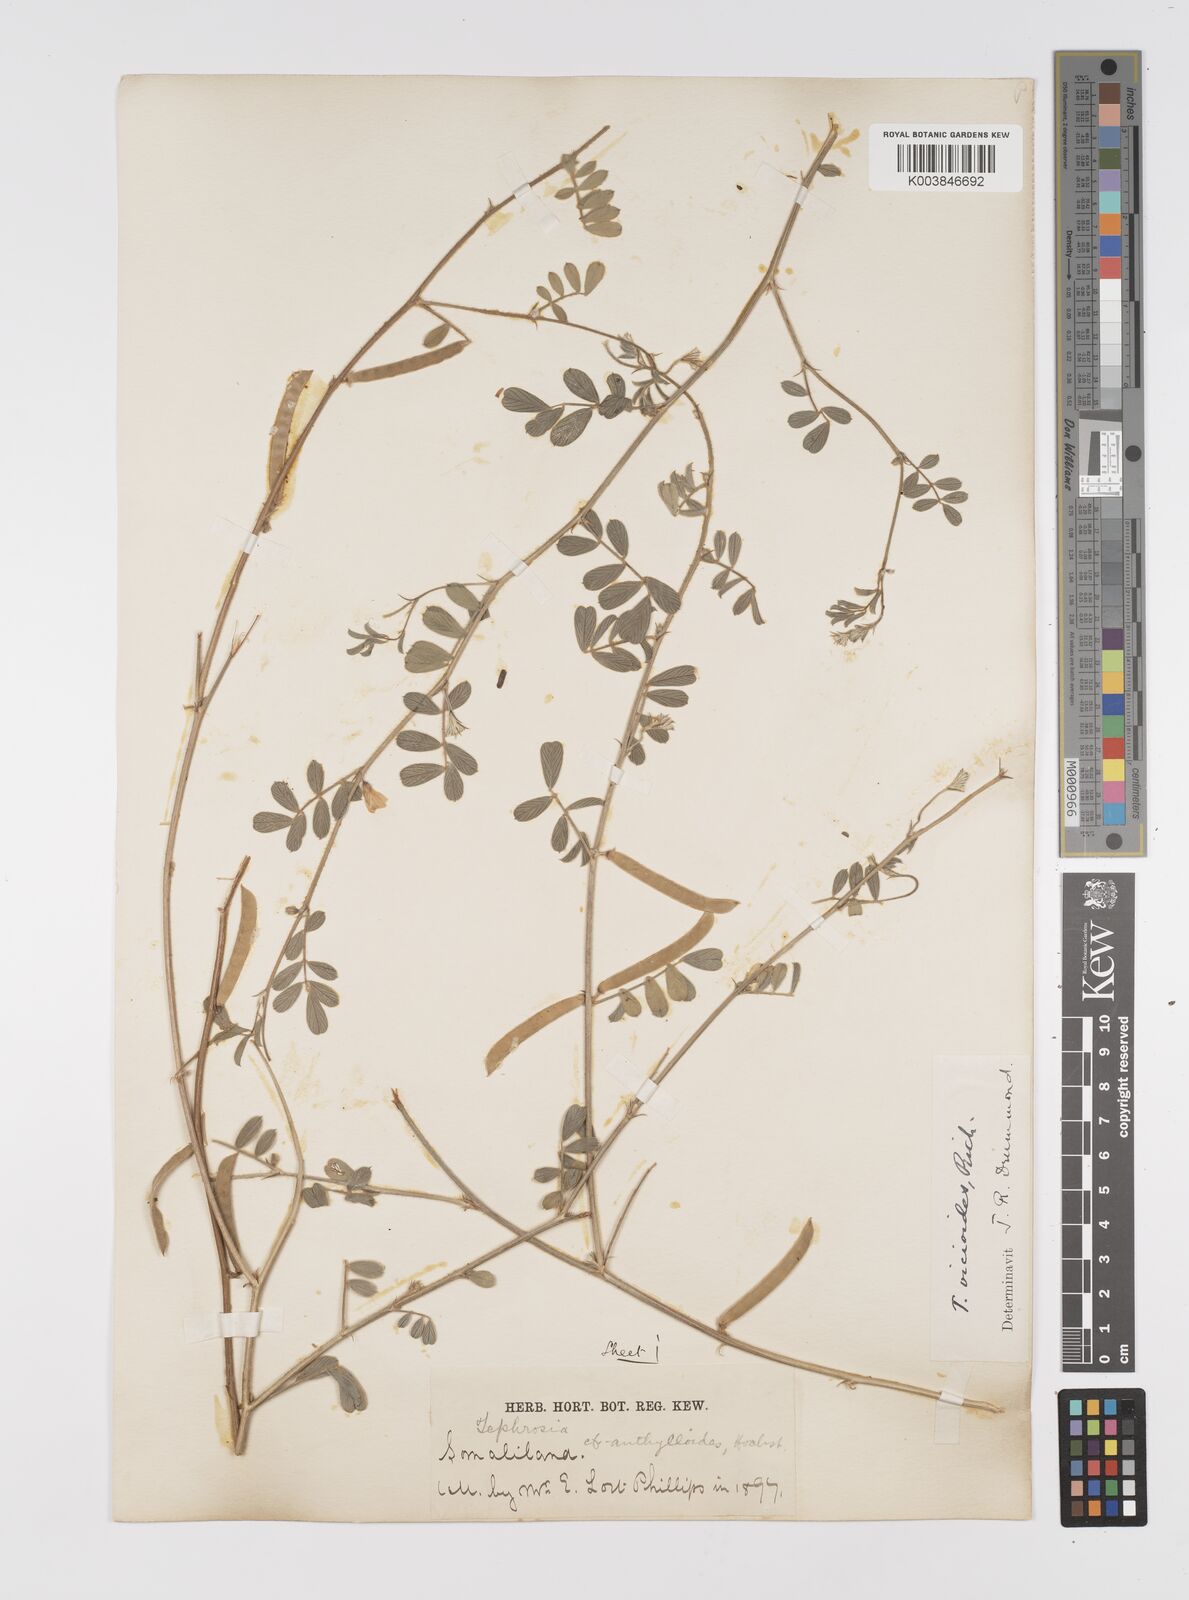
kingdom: Plantae
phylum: Tracheophyta
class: Magnoliopsida
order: Fabales
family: Fabaceae
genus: Tephrosia
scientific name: Tephrosia uniflora
